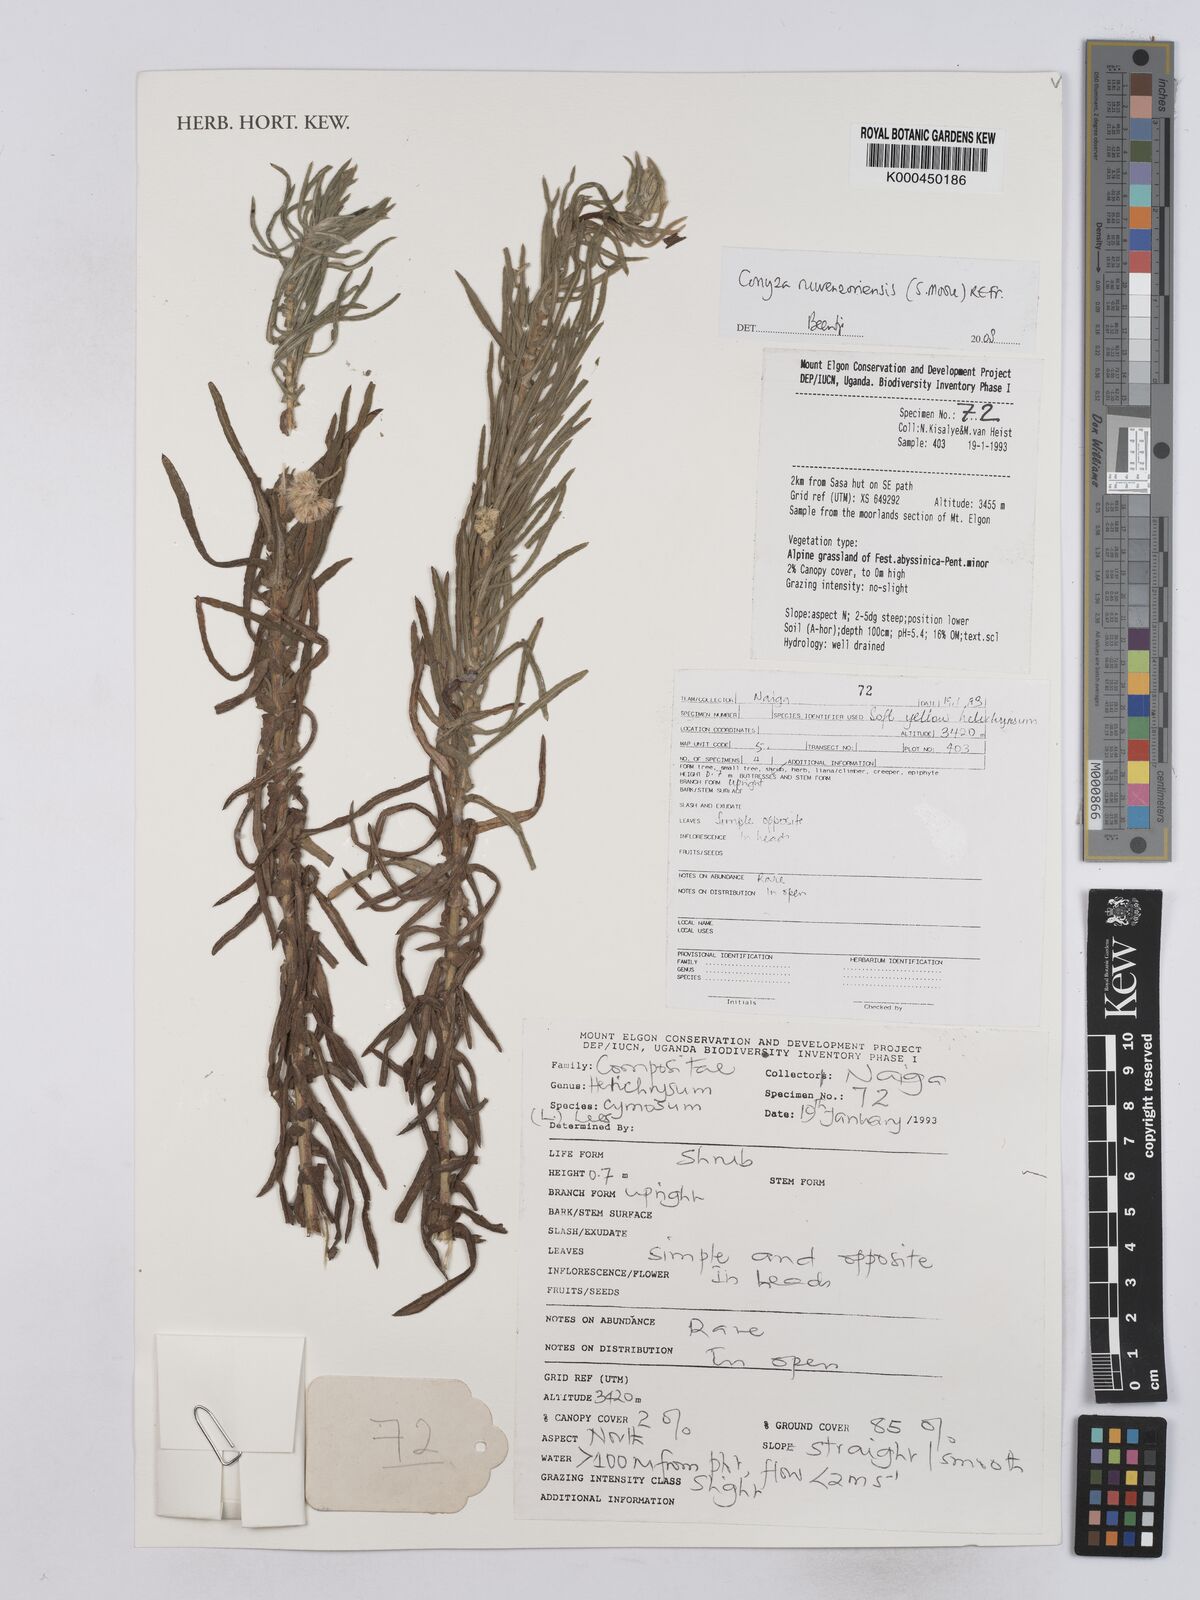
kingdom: Plantae
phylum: Tracheophyta
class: Magnoliopsida
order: Asterales
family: Asteraceae
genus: Nidorella
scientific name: Nidorella welwitschii
